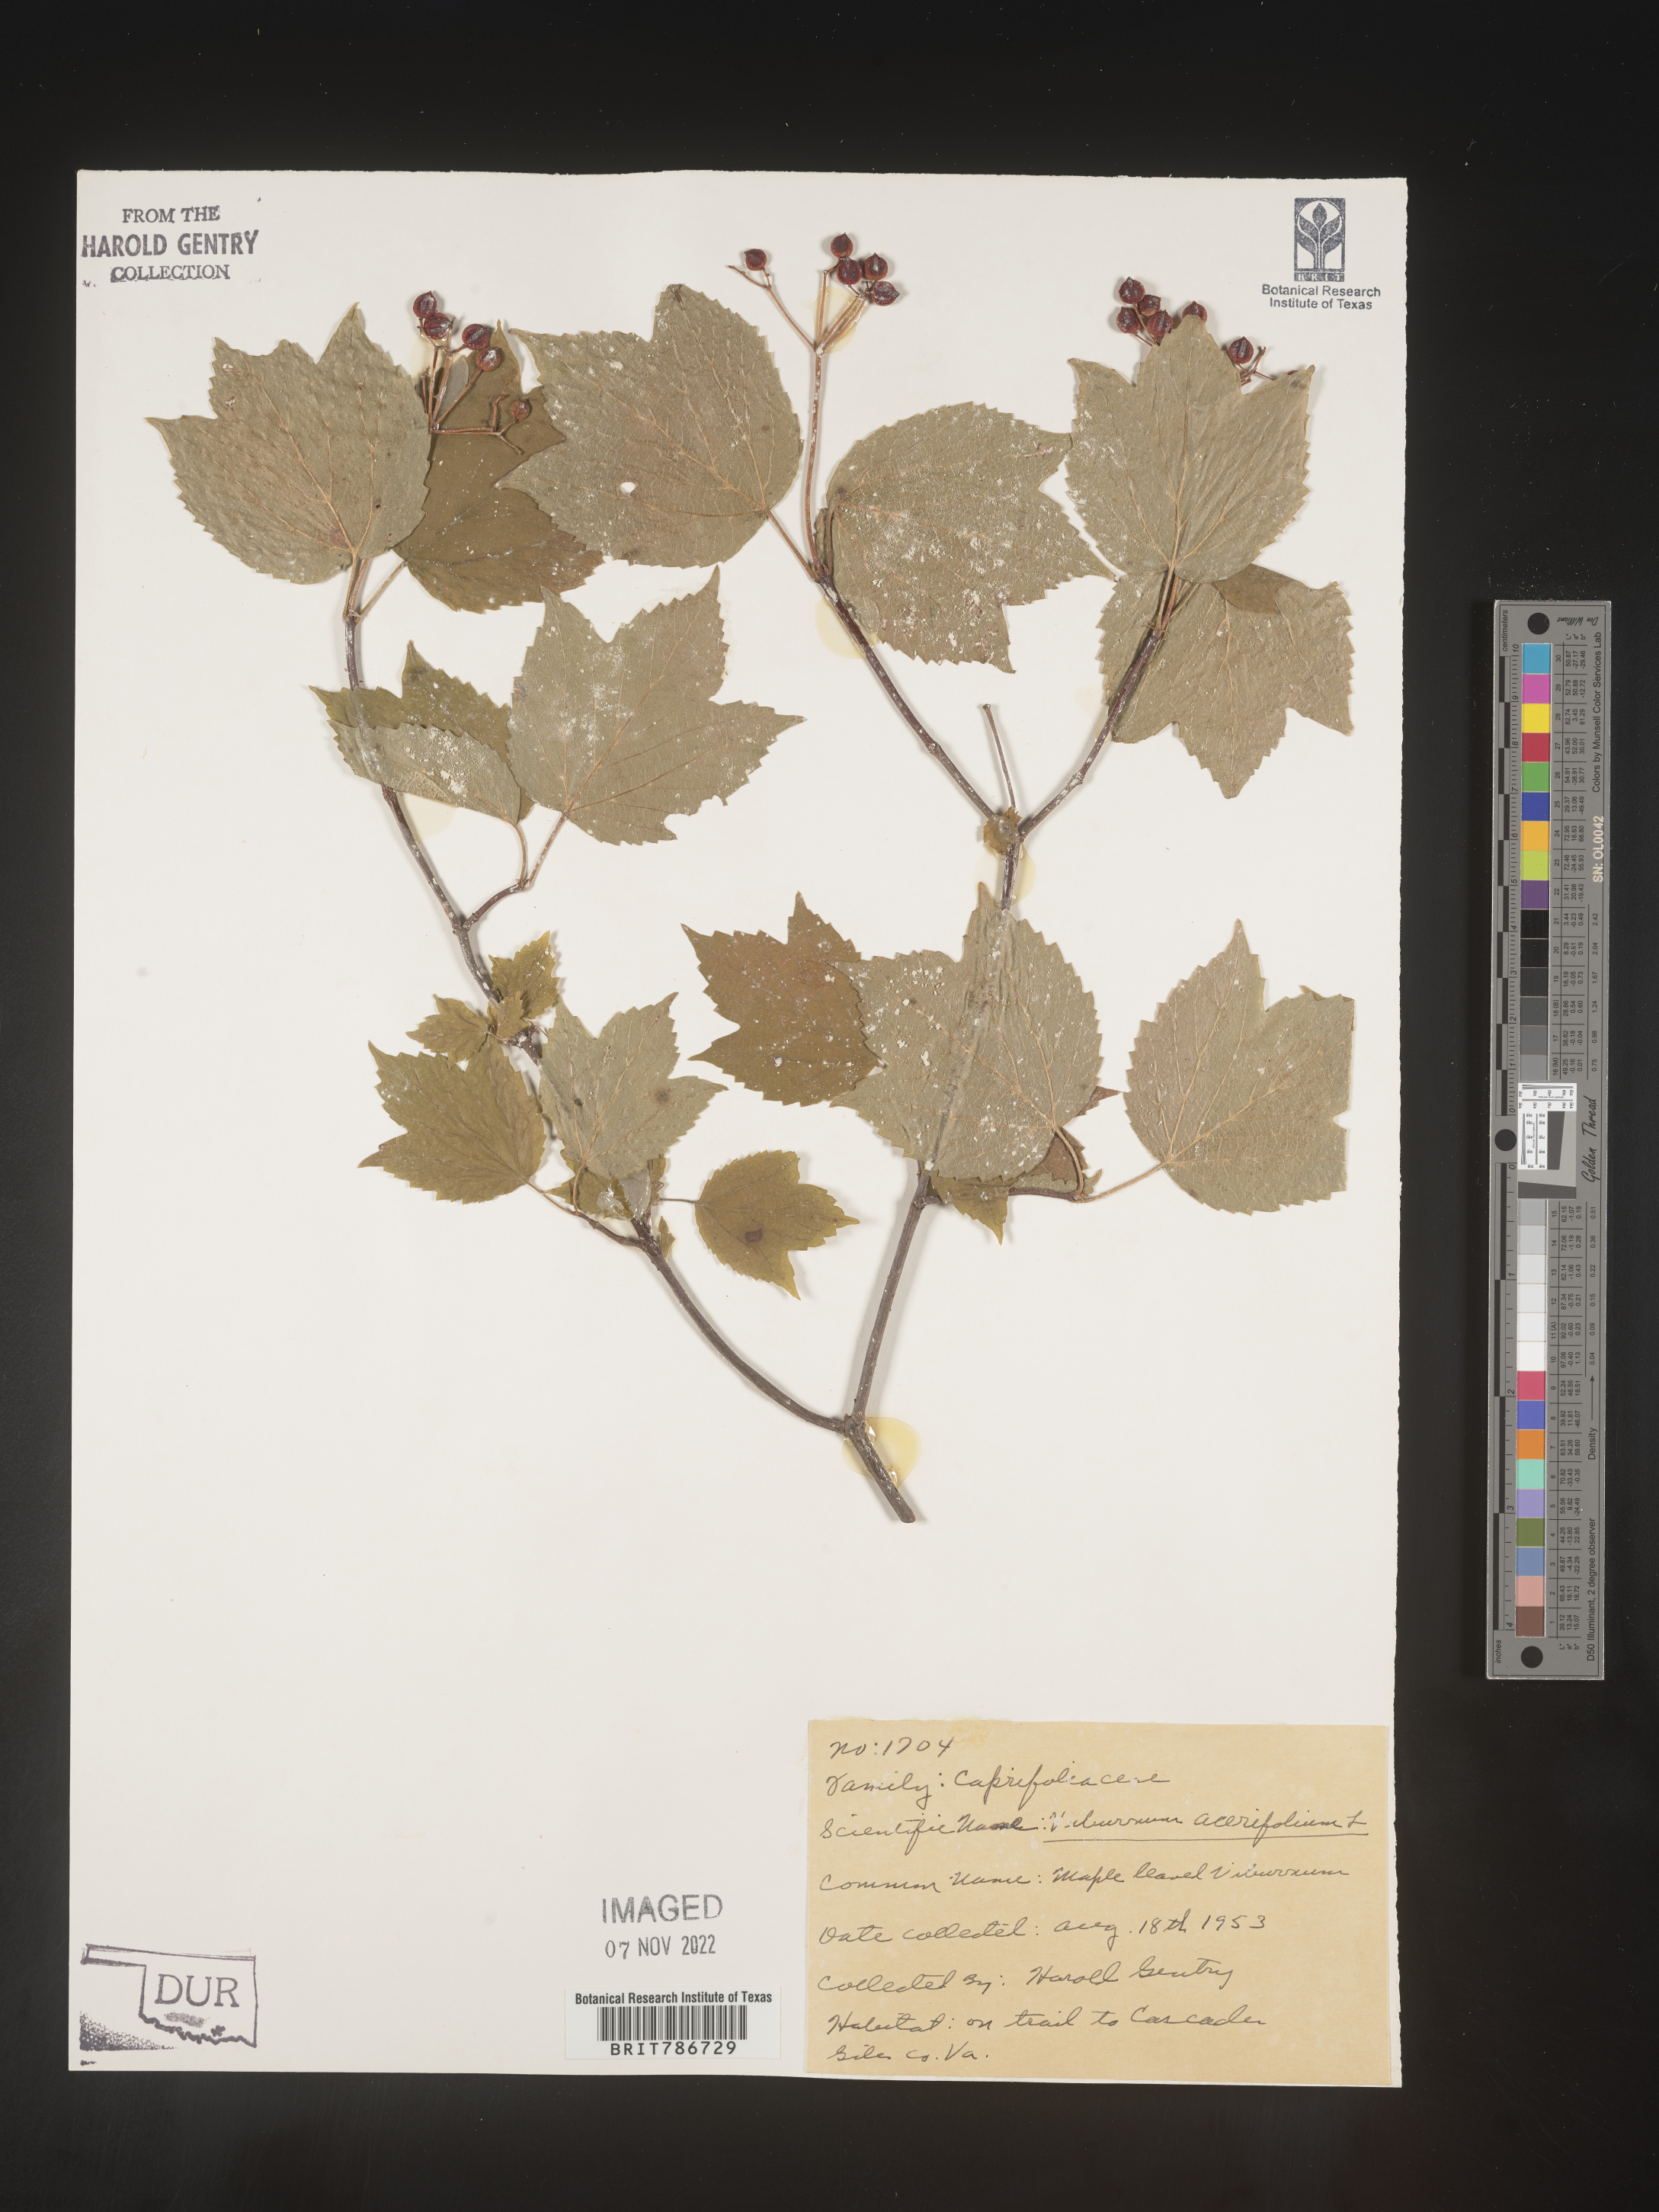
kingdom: Plantae
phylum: Tracheophyta
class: Magnoliopsida
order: Dipsacales
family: Viburnaceae
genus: Viburnum
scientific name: Viburnum acerifolium
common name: Dockmackie
